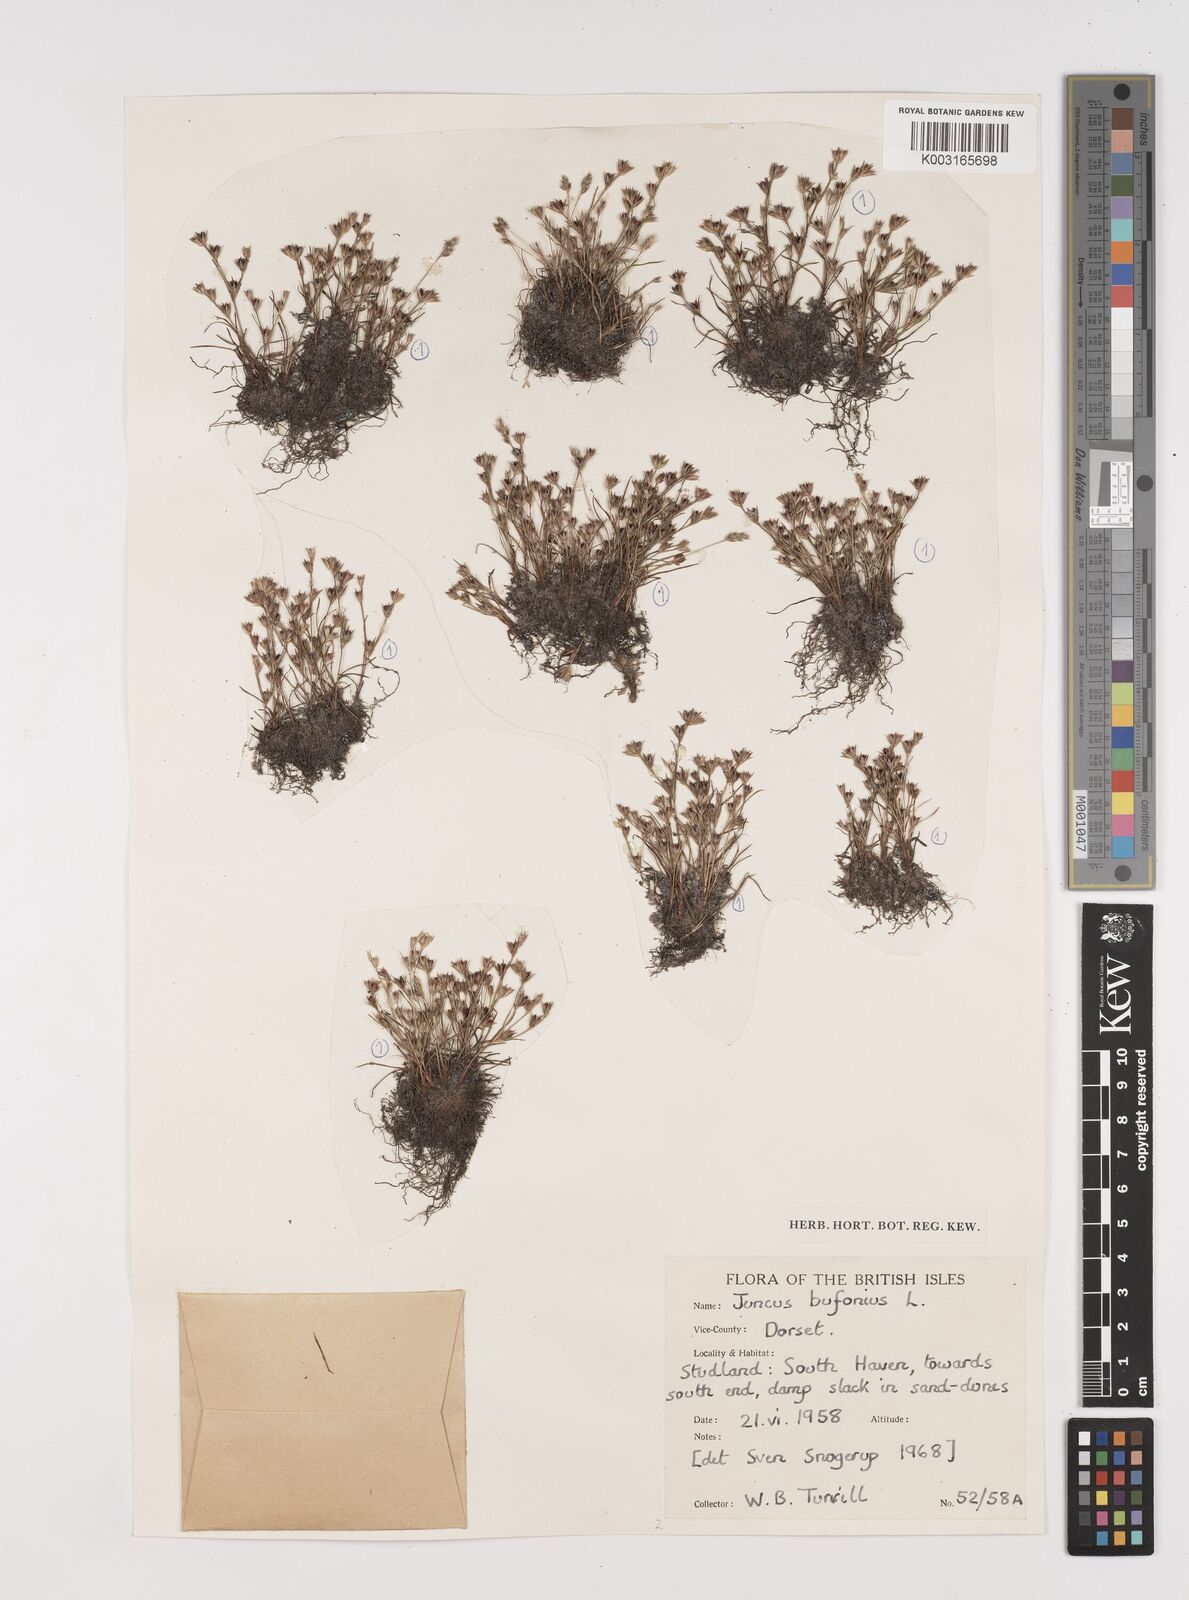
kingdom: Plantae
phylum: Tracheophyta
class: Liliopsida
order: Poales
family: Juncaceae
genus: Juncus
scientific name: Juncus bufonius
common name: Toad rush
